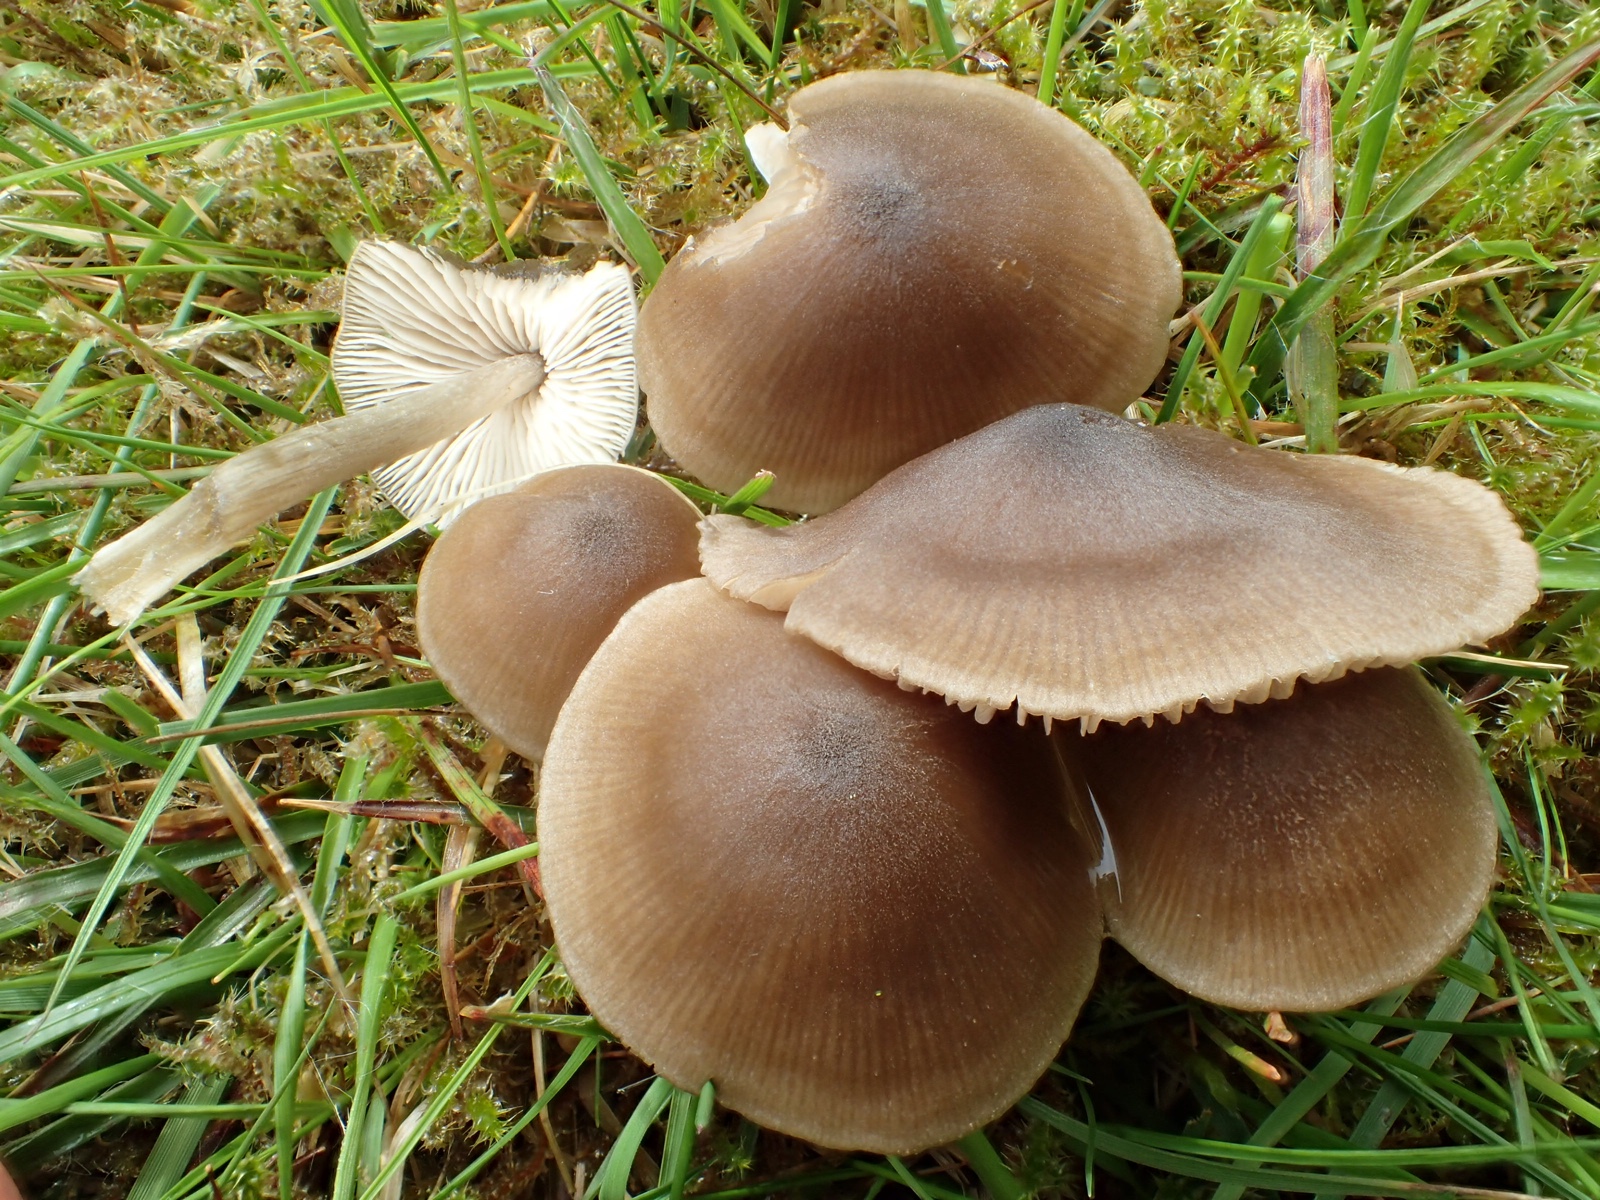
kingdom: Fungi
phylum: Basidiomycota
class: Agaricomycetes
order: Agaricales
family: Entolomataceae
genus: Entoloma
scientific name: Entoloma
